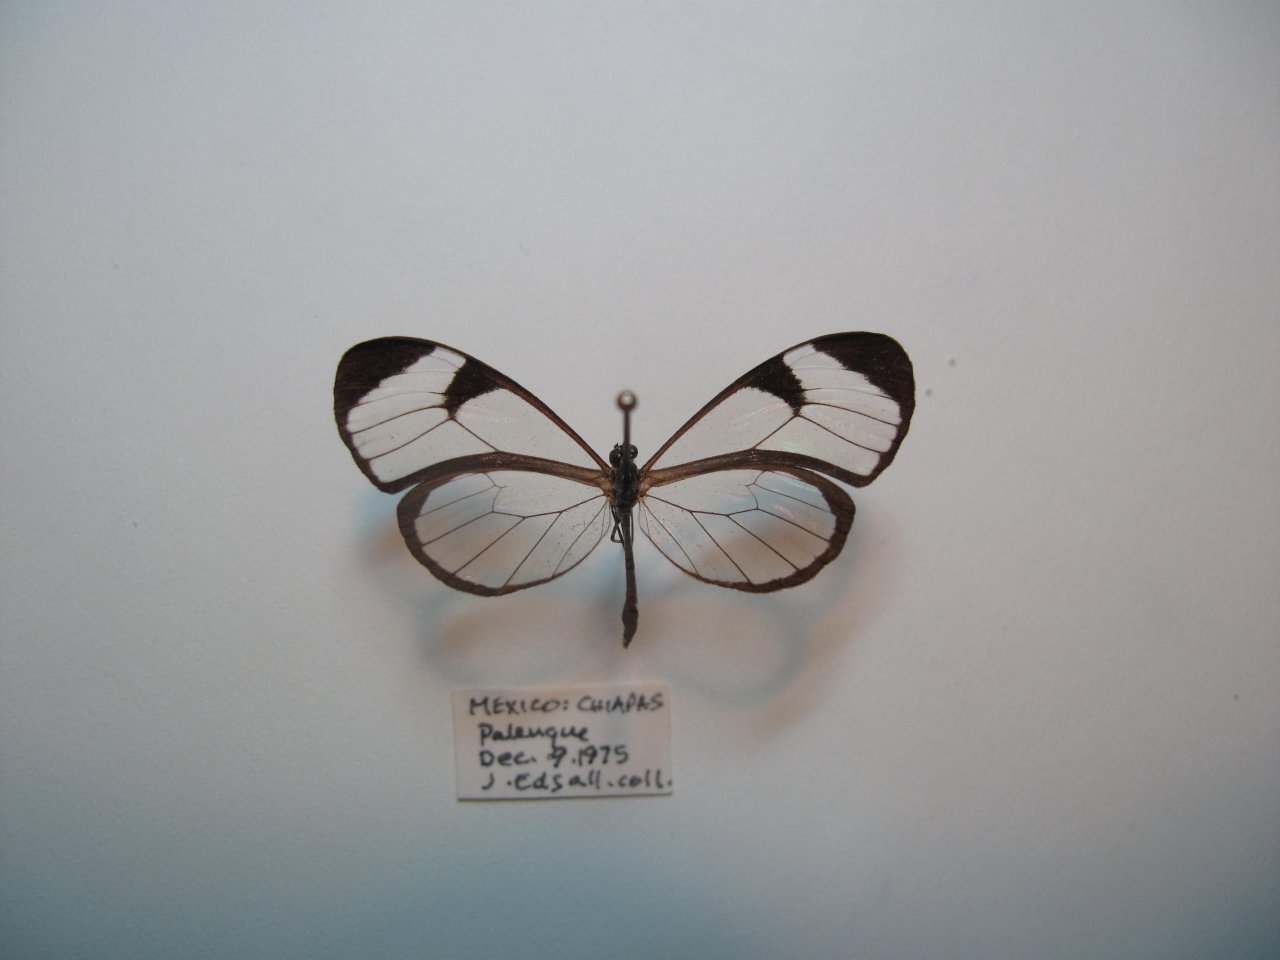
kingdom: Animalia
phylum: Arthropoda
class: Insecta
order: Lepidoptera
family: Nymphalidae
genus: Pteronymia
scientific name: Pteronymia cotytto
